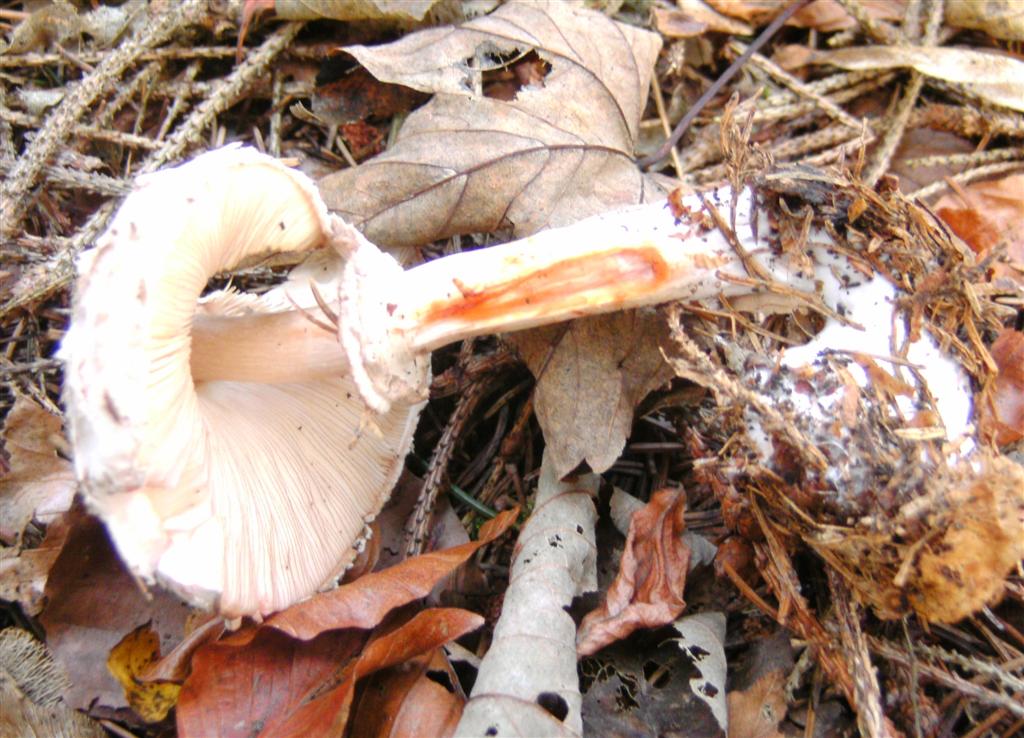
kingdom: Fungi
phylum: Basidiomycota
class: Agaricomycetes
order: Agaricales
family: Agaricaceae
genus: Chlorophyllum
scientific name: Chlorophyllum olivieri
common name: almindelig rabarberhat
